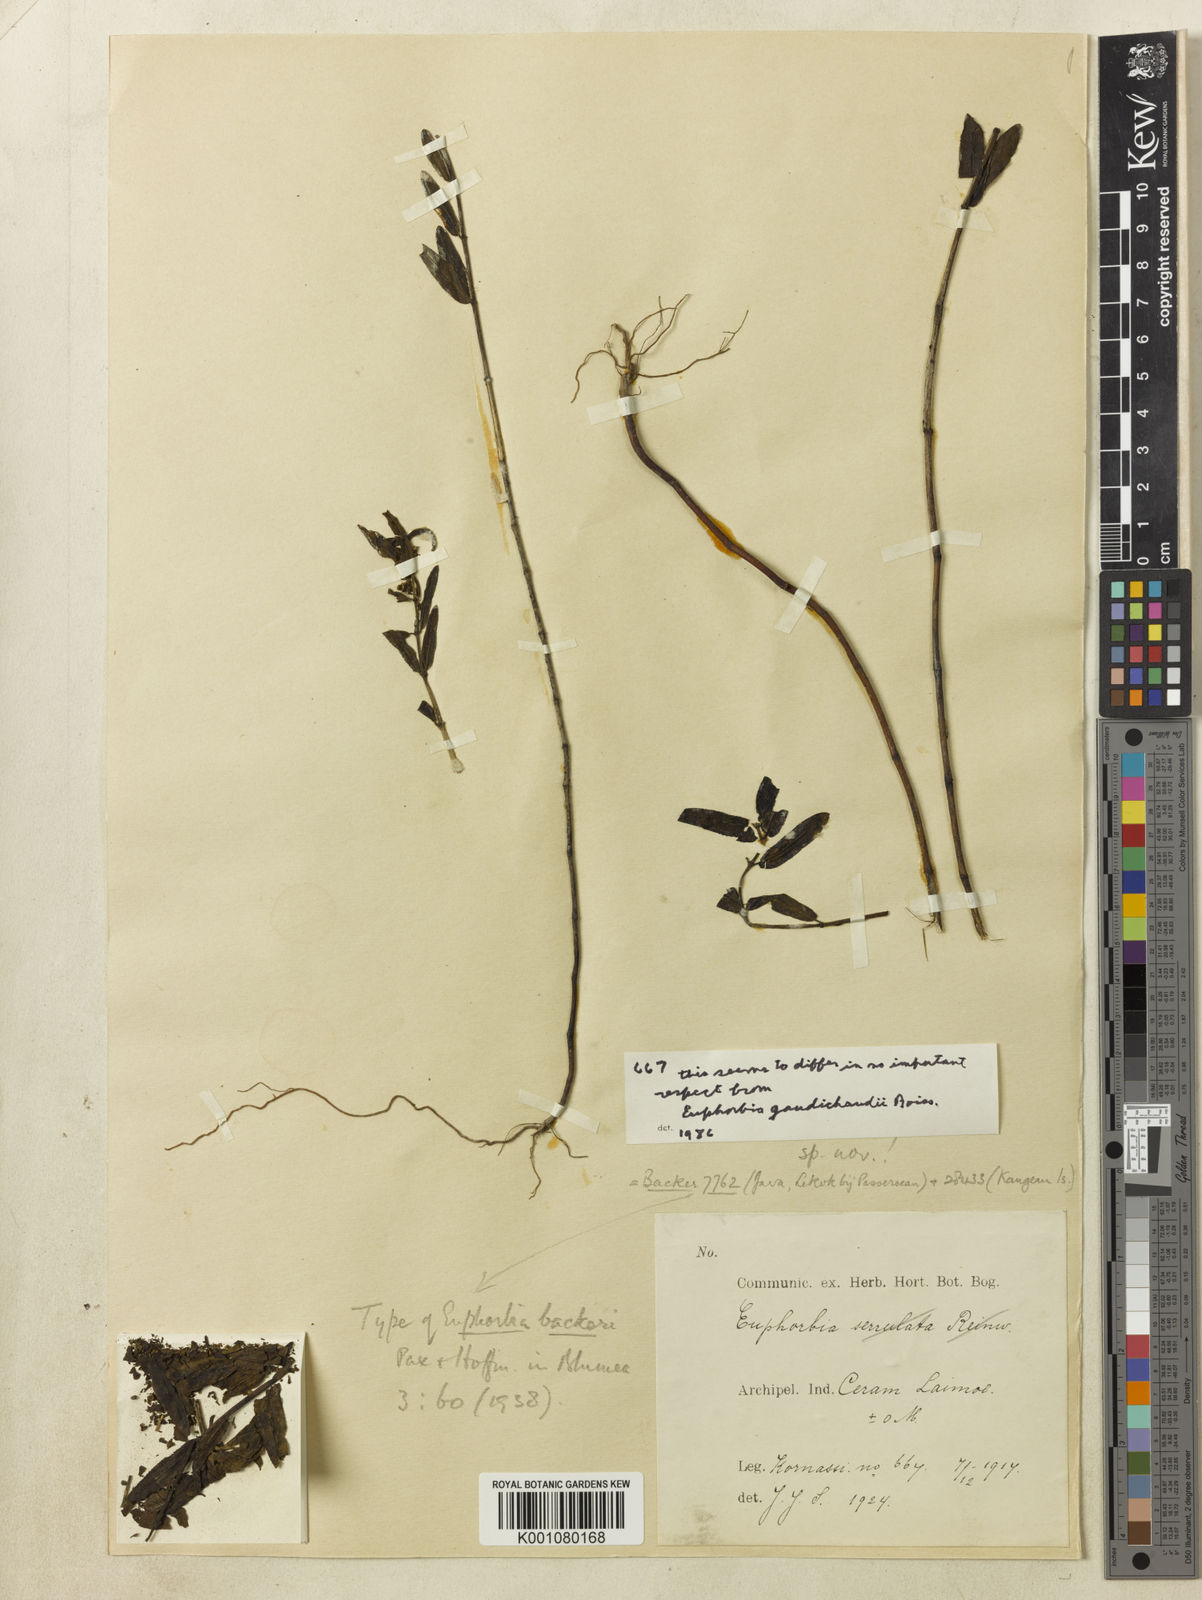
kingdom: Plantae
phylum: Tracheophyta
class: Magnoliopsida
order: Malpighiales
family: Euphorbiaceae
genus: Euphorbia
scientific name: Euphorbia bifida
